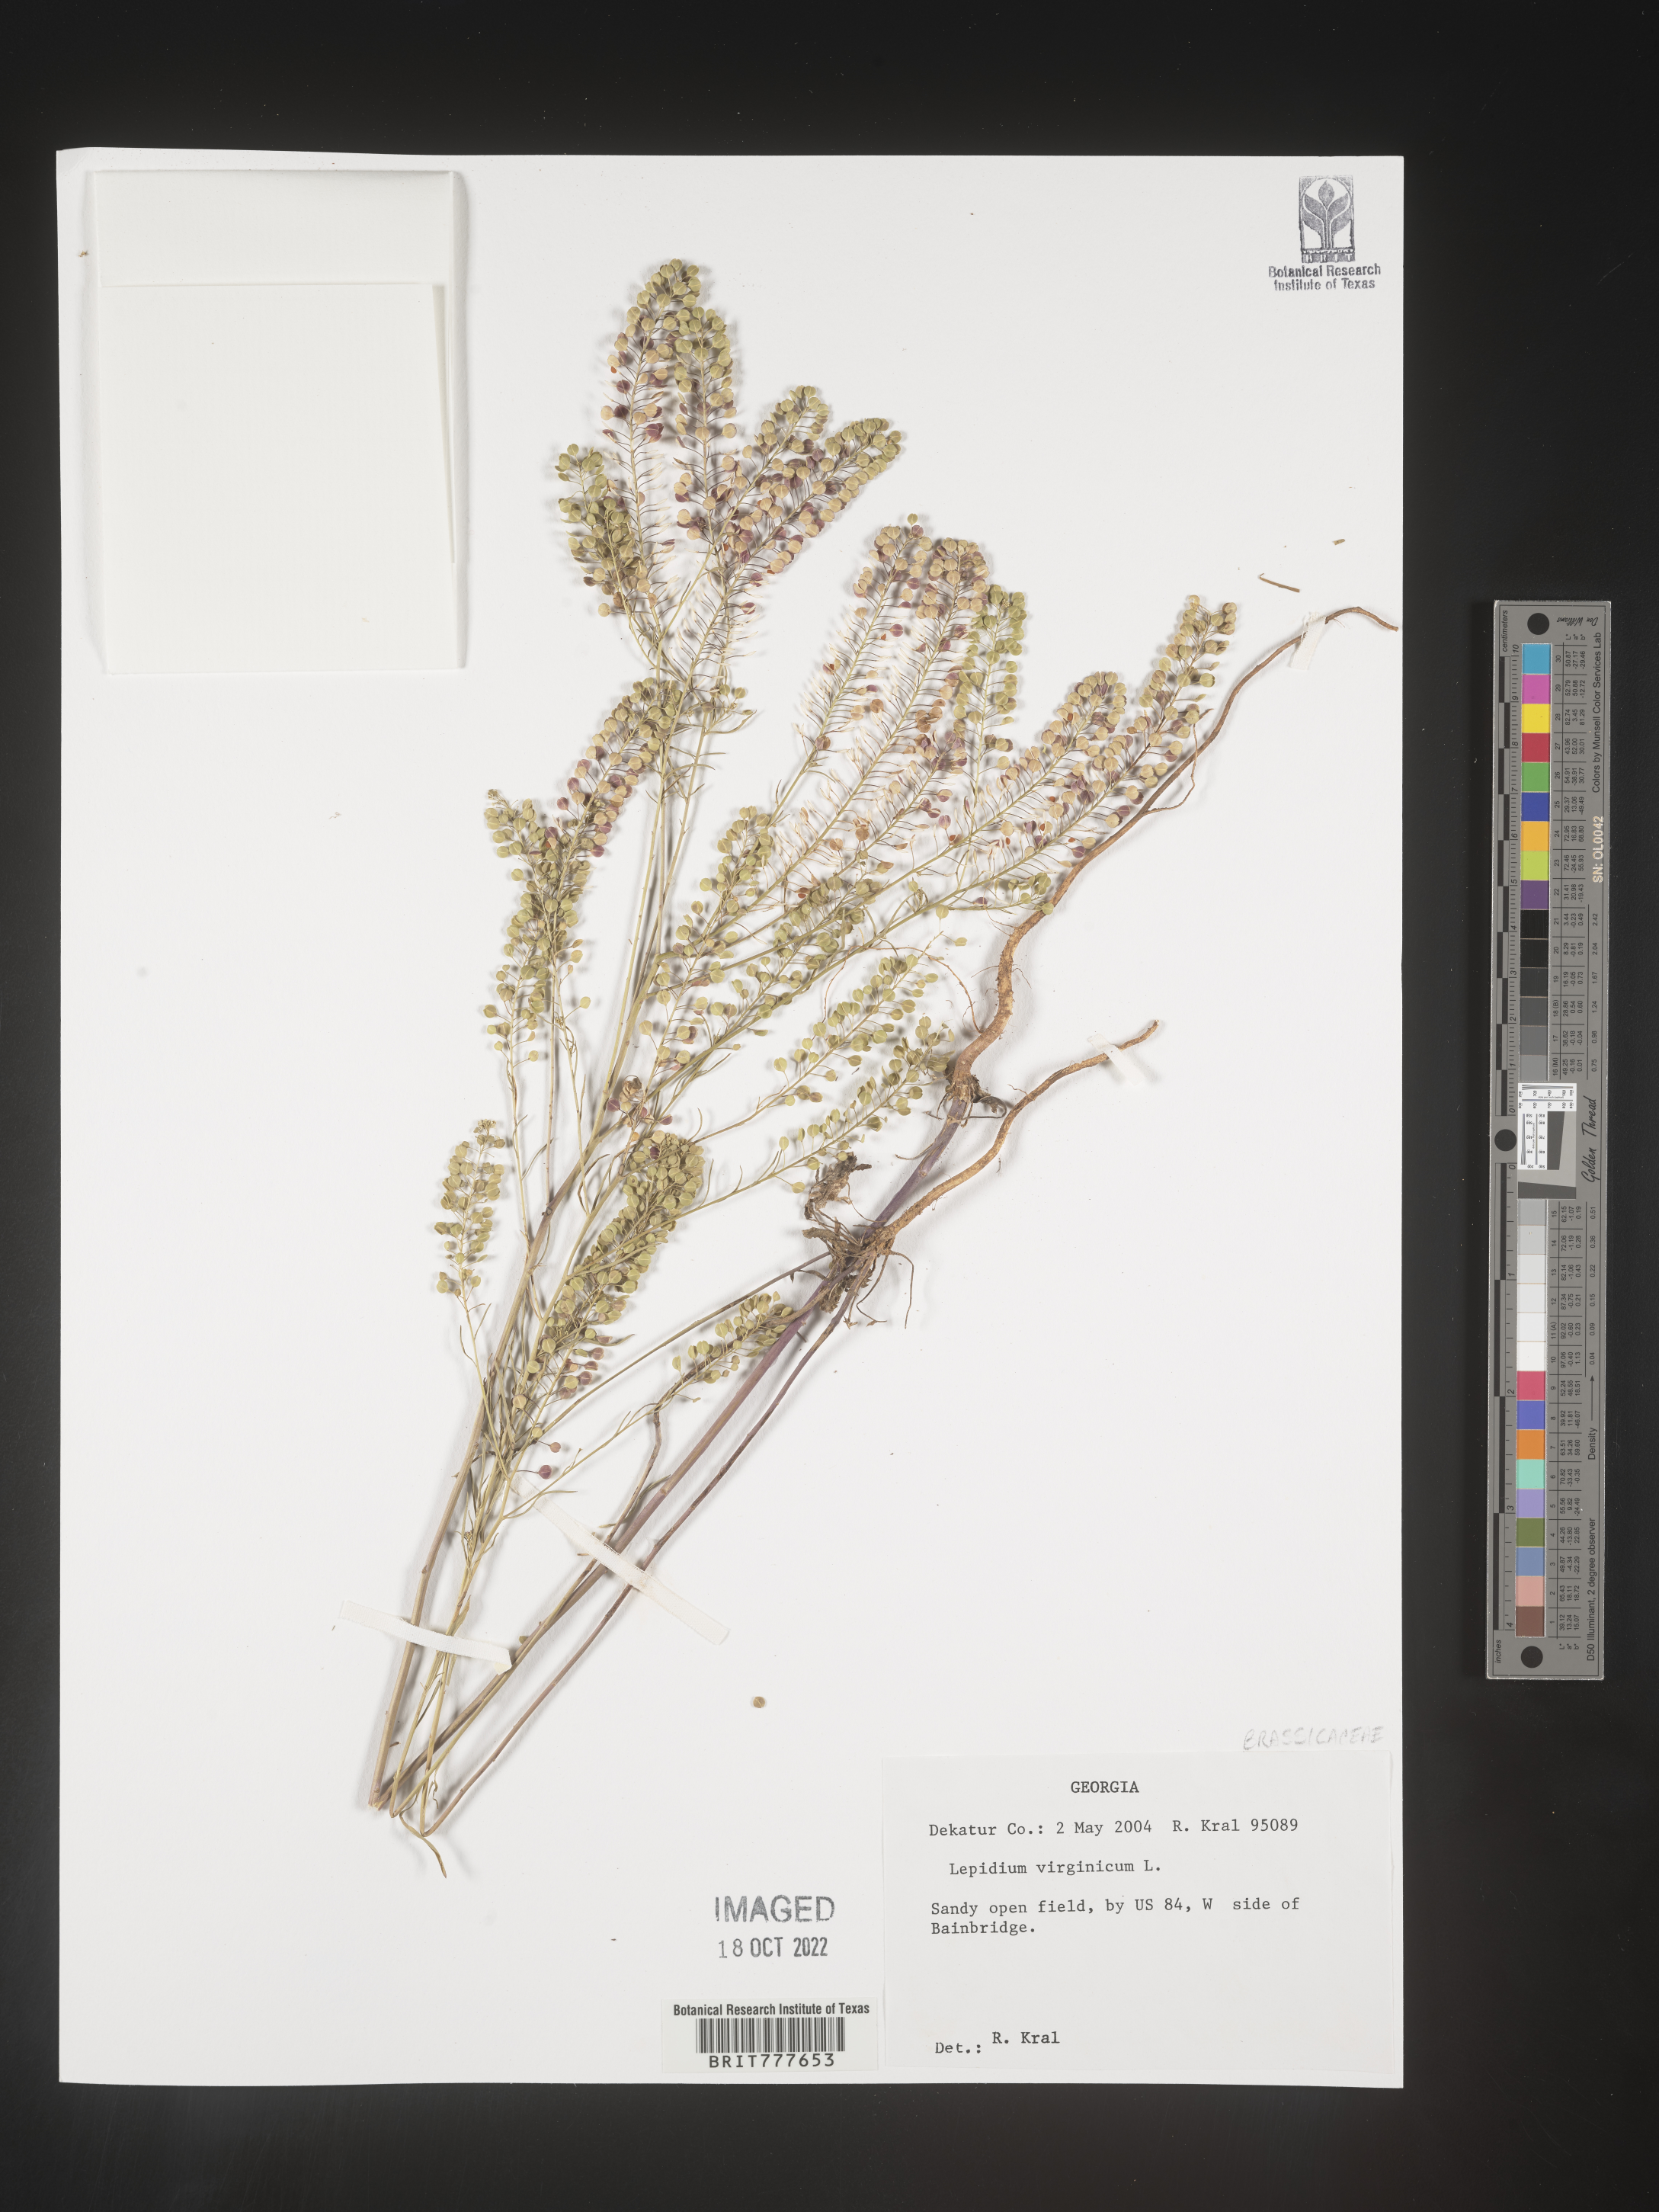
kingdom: Plantae
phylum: Tracheophyta
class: Magnoliopsida
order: Brassicales
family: Brassicaceae
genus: Lepidium
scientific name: Lepidium virginicum
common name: Least pepperwort
